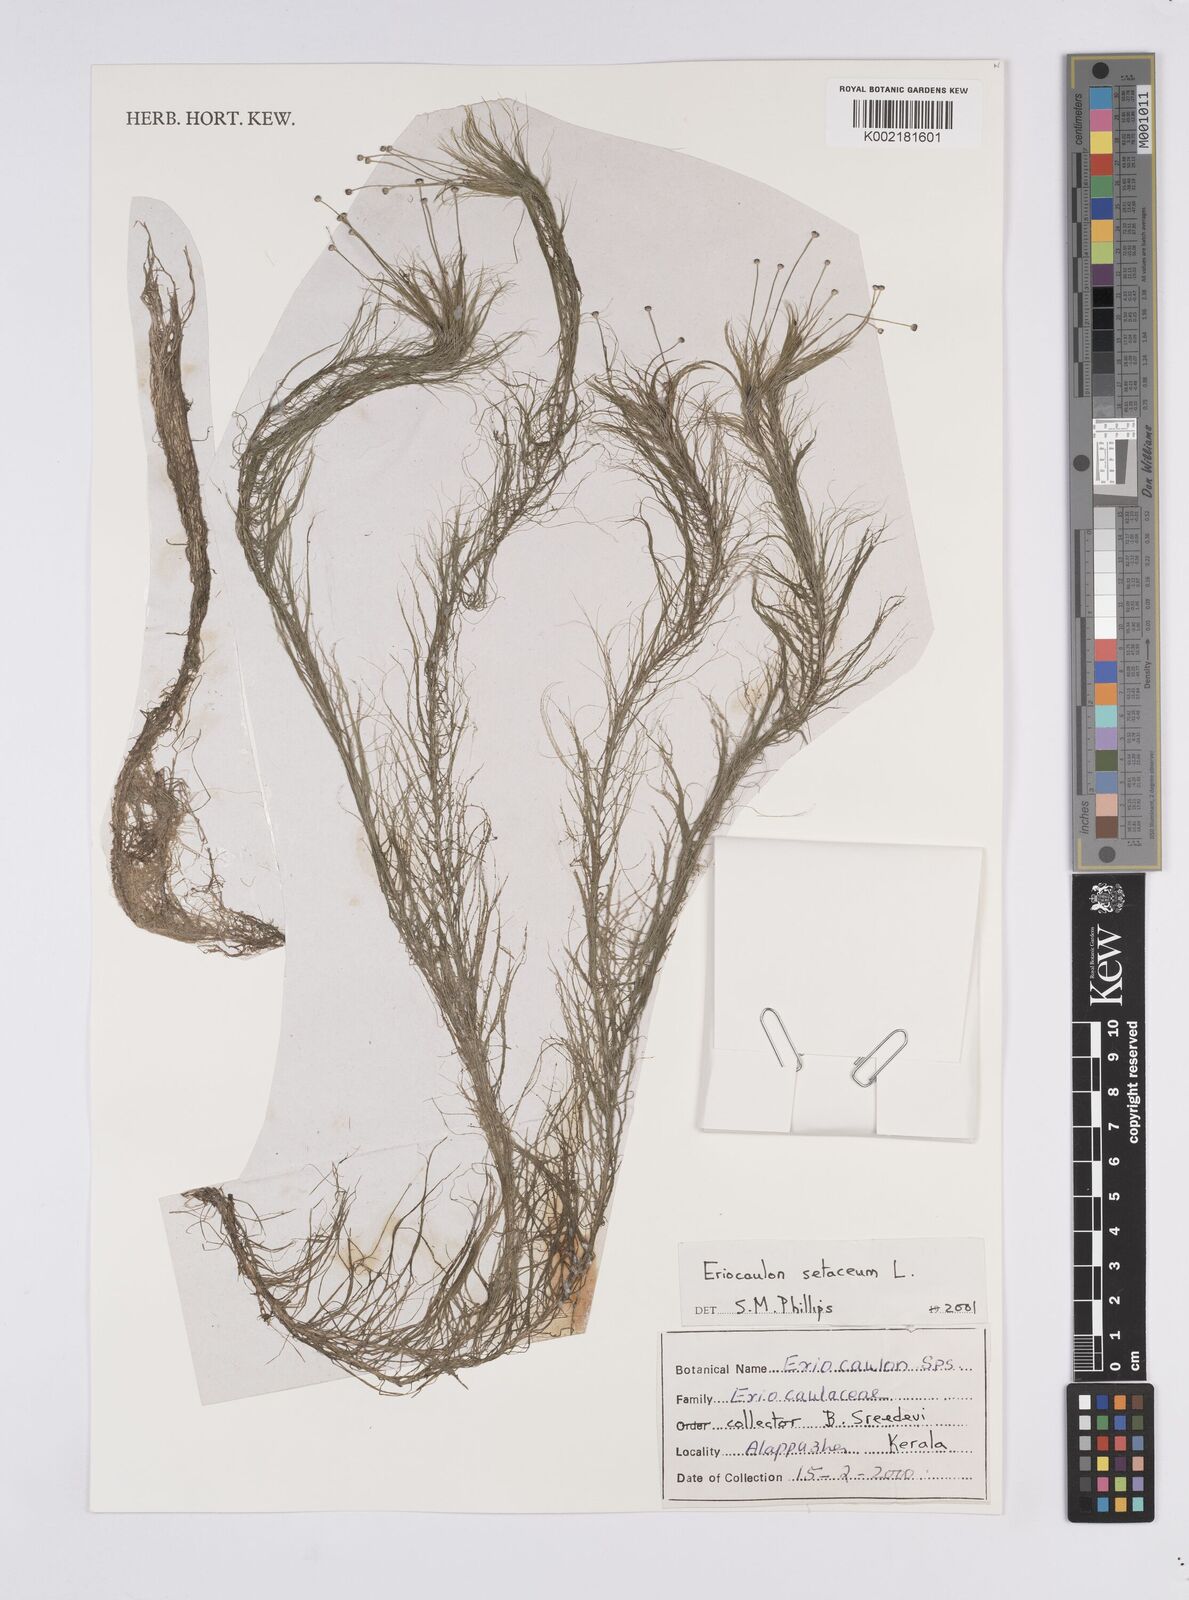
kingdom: Plantae
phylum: Tracheophyta
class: Liliopsida
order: Poales
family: Eriocaulaceae
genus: Eriocaulon
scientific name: Eriocaulon setaceum
